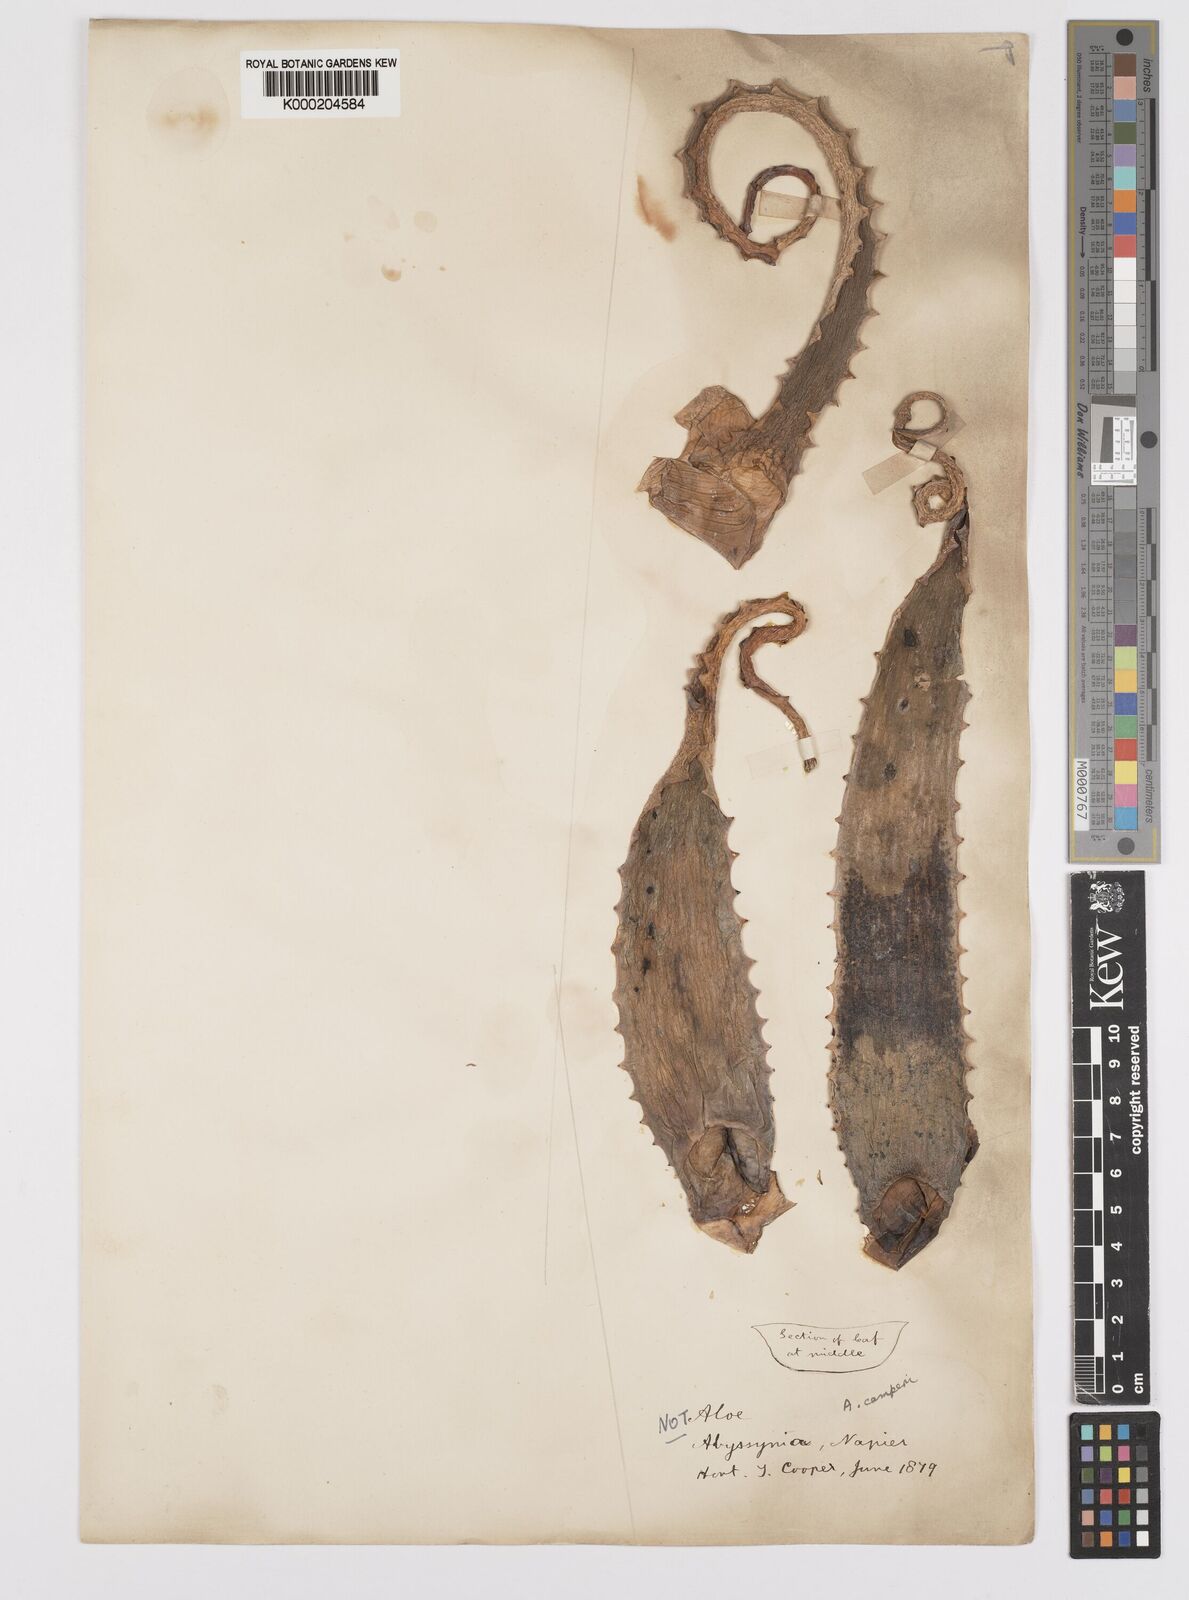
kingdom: Plantae
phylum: Tracheophyta
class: Liliopsida
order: Asparagales
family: Asphodelaceae
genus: Aloe
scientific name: Aloe camperi
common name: Camper's aloe
